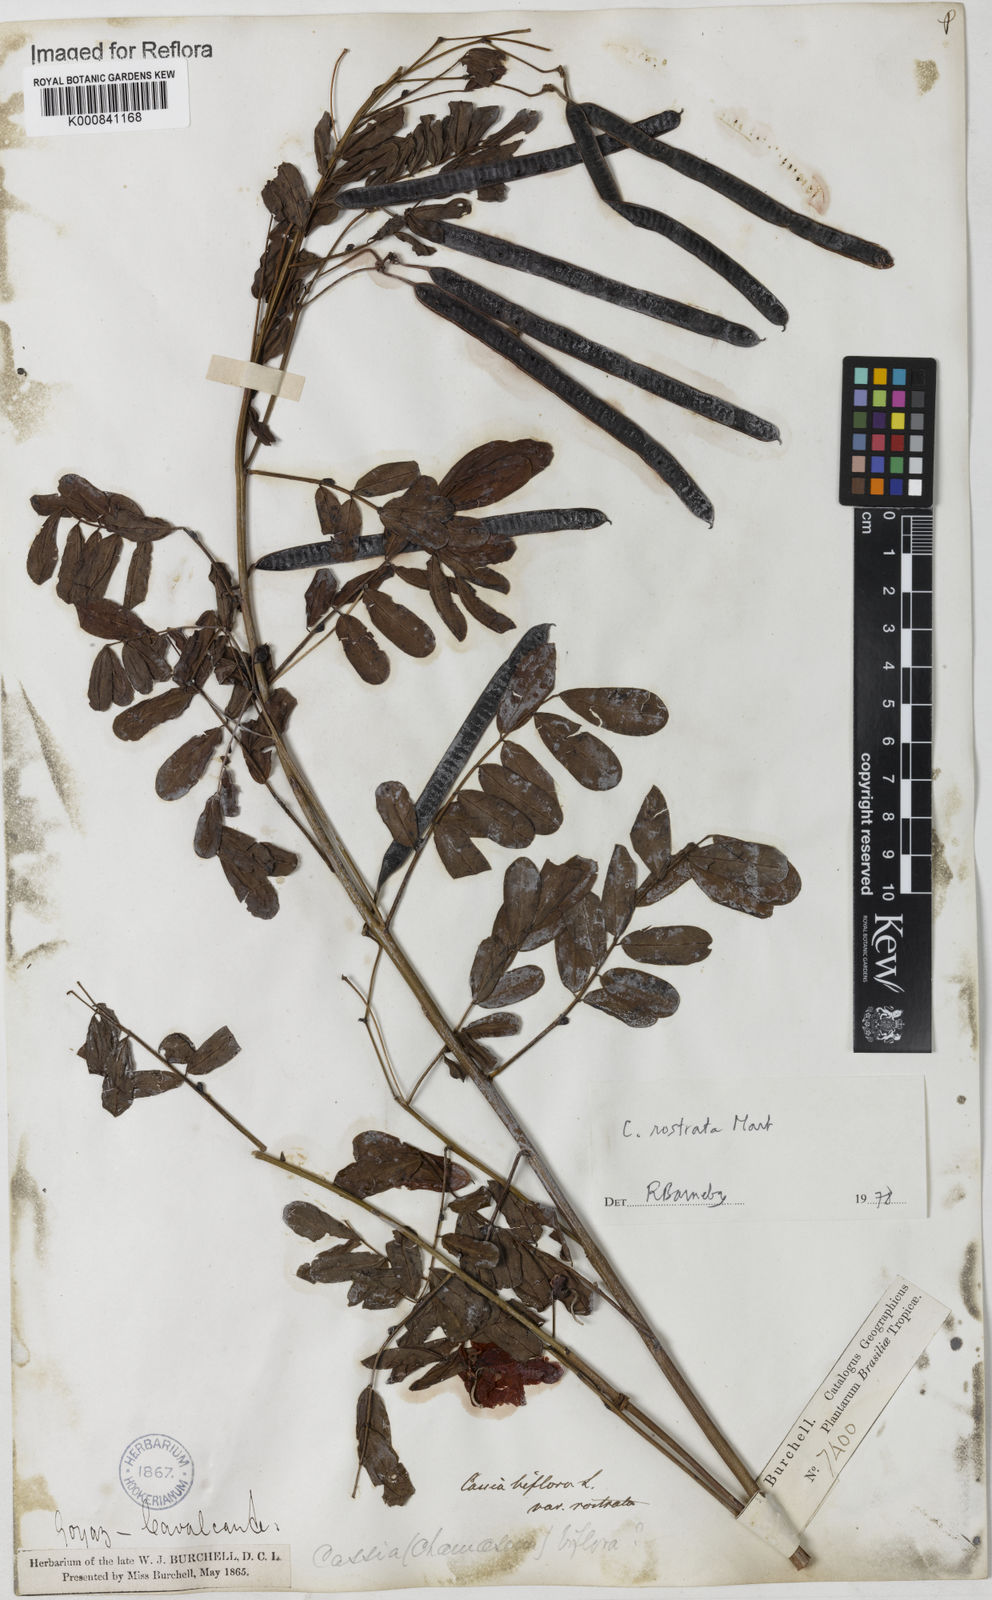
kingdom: Plantae
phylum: Tracheophyta
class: Magnoliopsida
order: Fabales
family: Fabaceae
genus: Senna
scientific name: Senna rostrata
